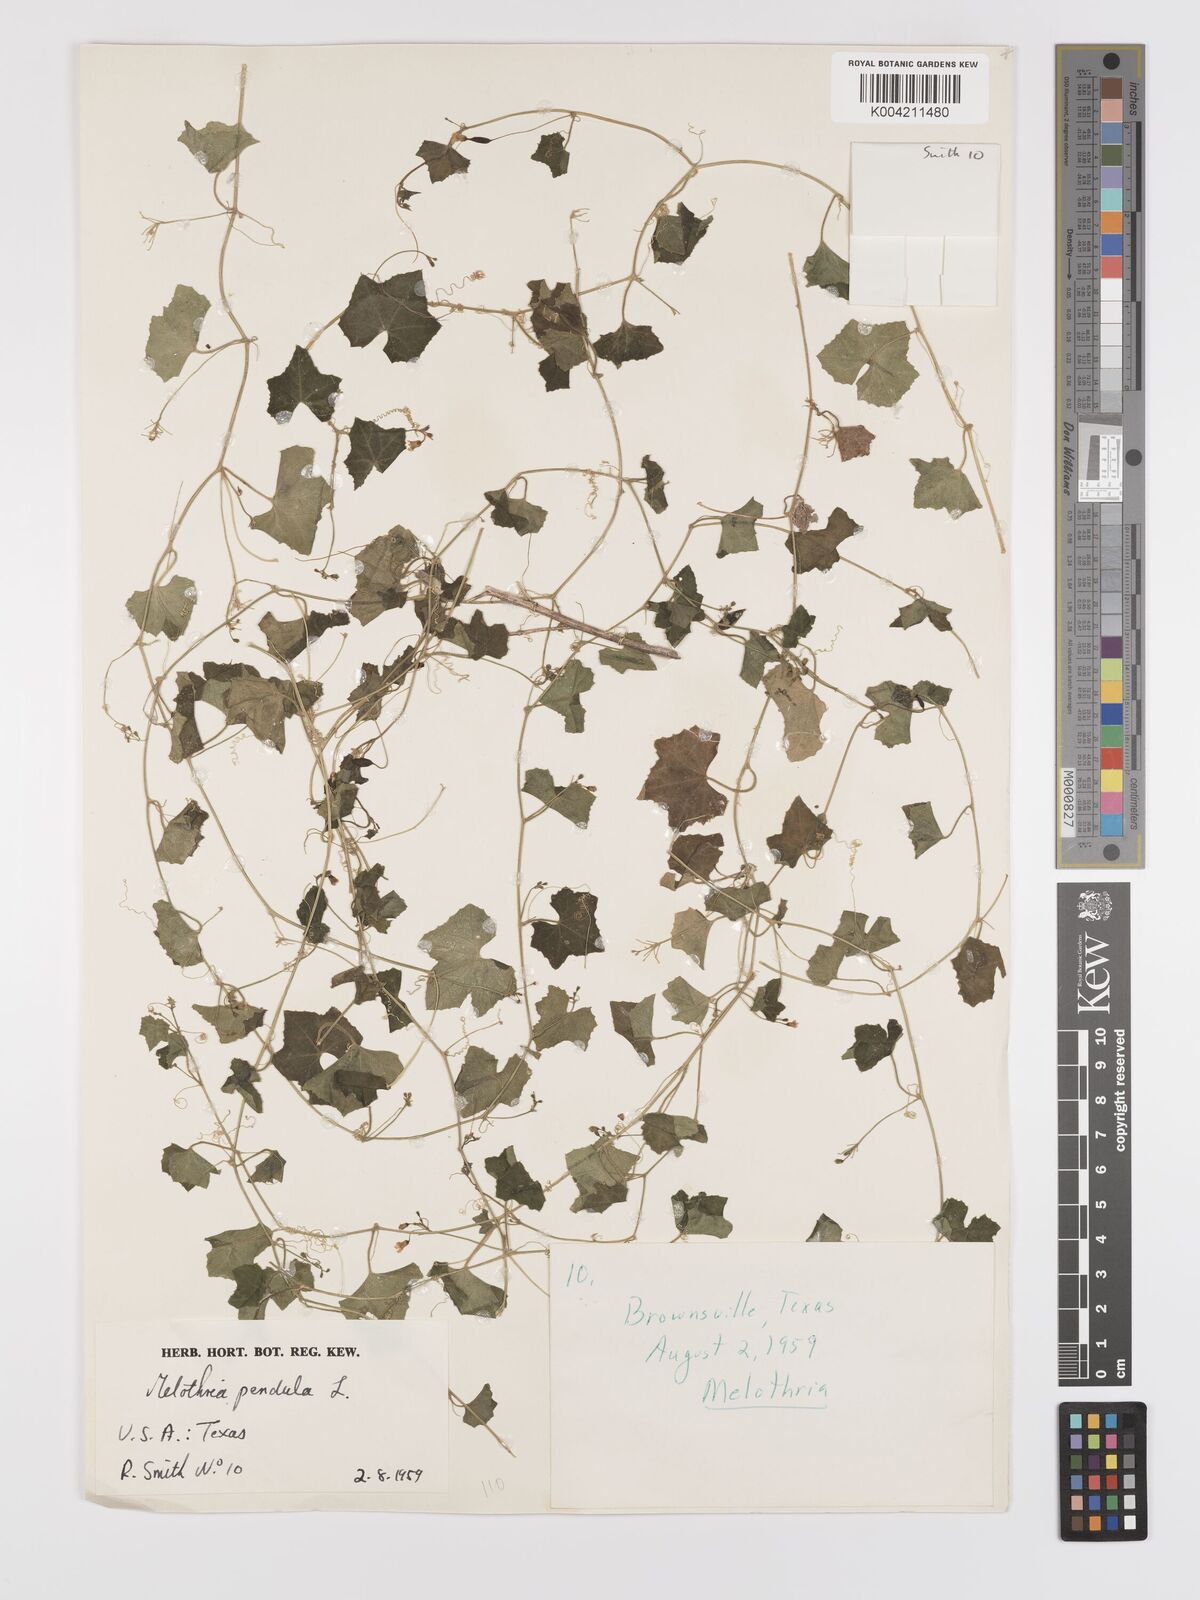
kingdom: Plantae
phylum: Tracheophyta
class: Magnoliopsida
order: Cucurbitales
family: Cucurbitaceae
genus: Melothria
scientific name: Melothria pendula
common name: Creeping-cucumber
